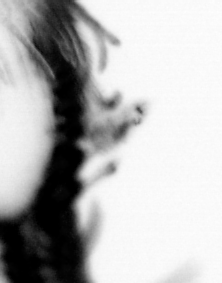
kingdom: Animalia
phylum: Annelida
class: Polychaeta
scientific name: Polychaeta
